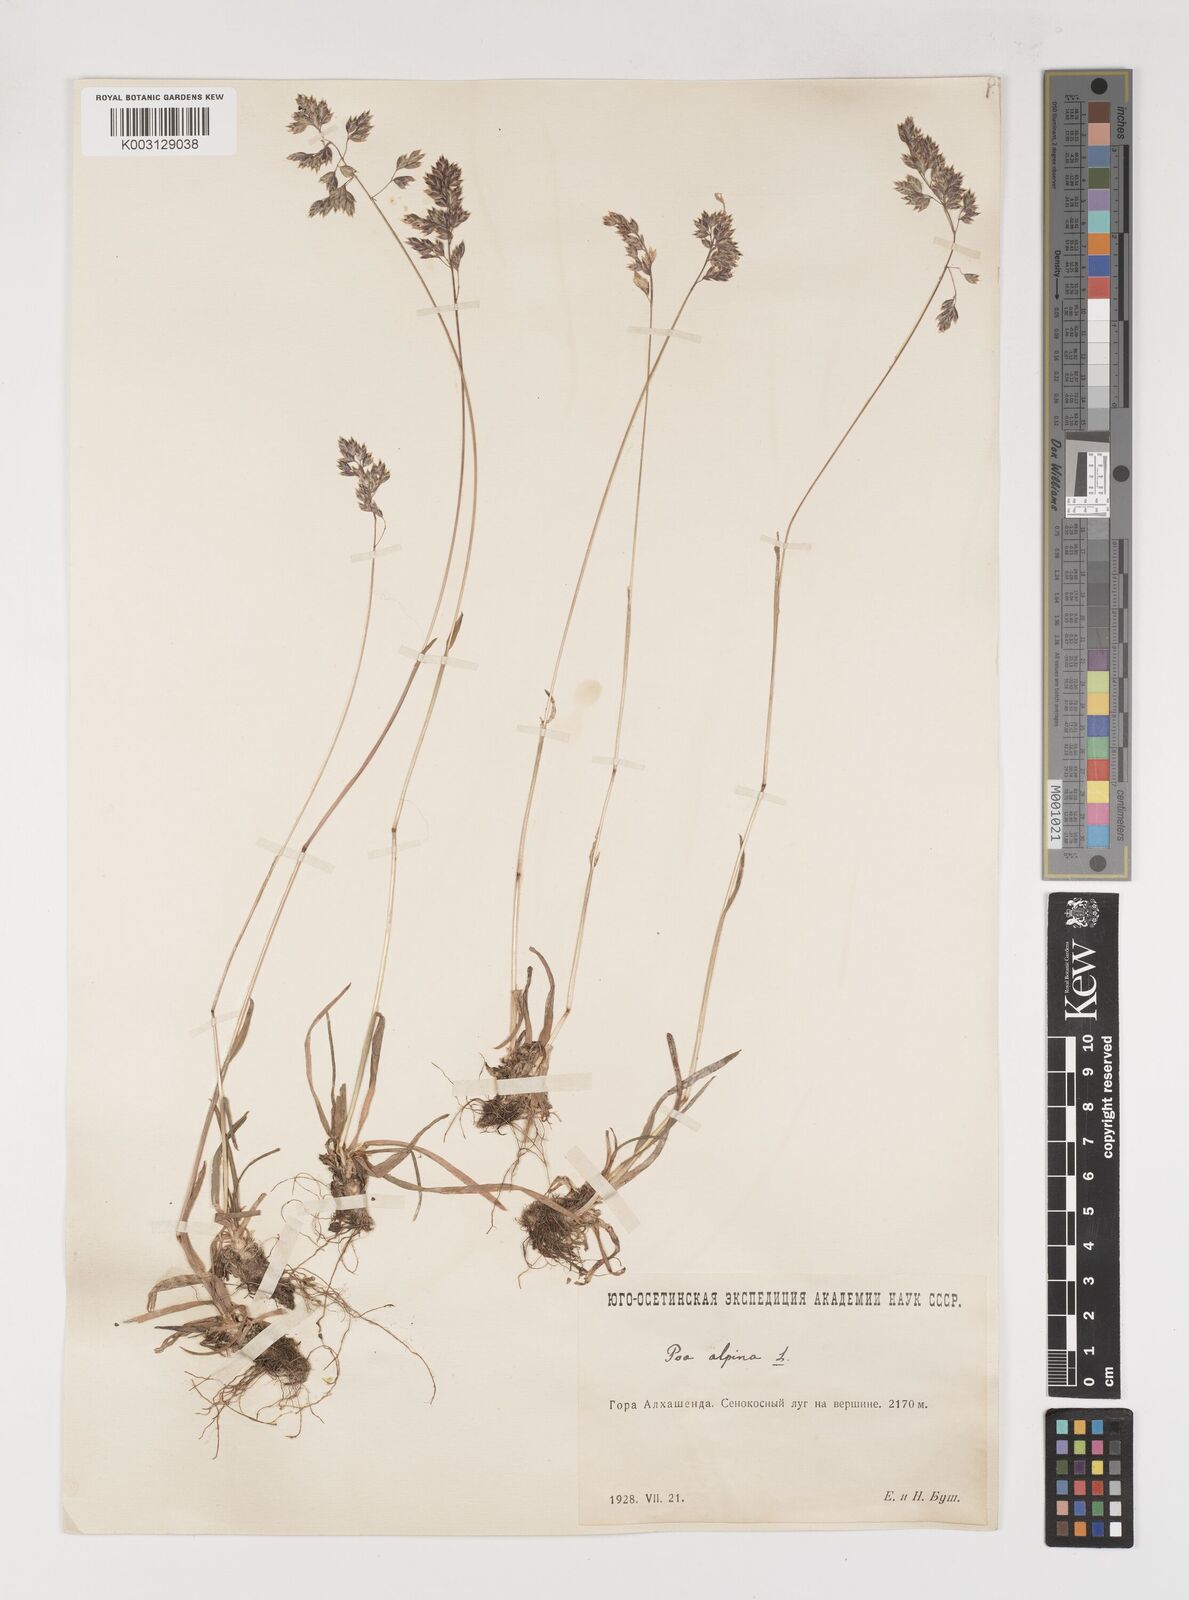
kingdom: Plantae
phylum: Tracheophyta
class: Liliopsida
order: Poales
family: Poaceae
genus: Poa
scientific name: Poa alpina
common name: Alpine bluegrass
